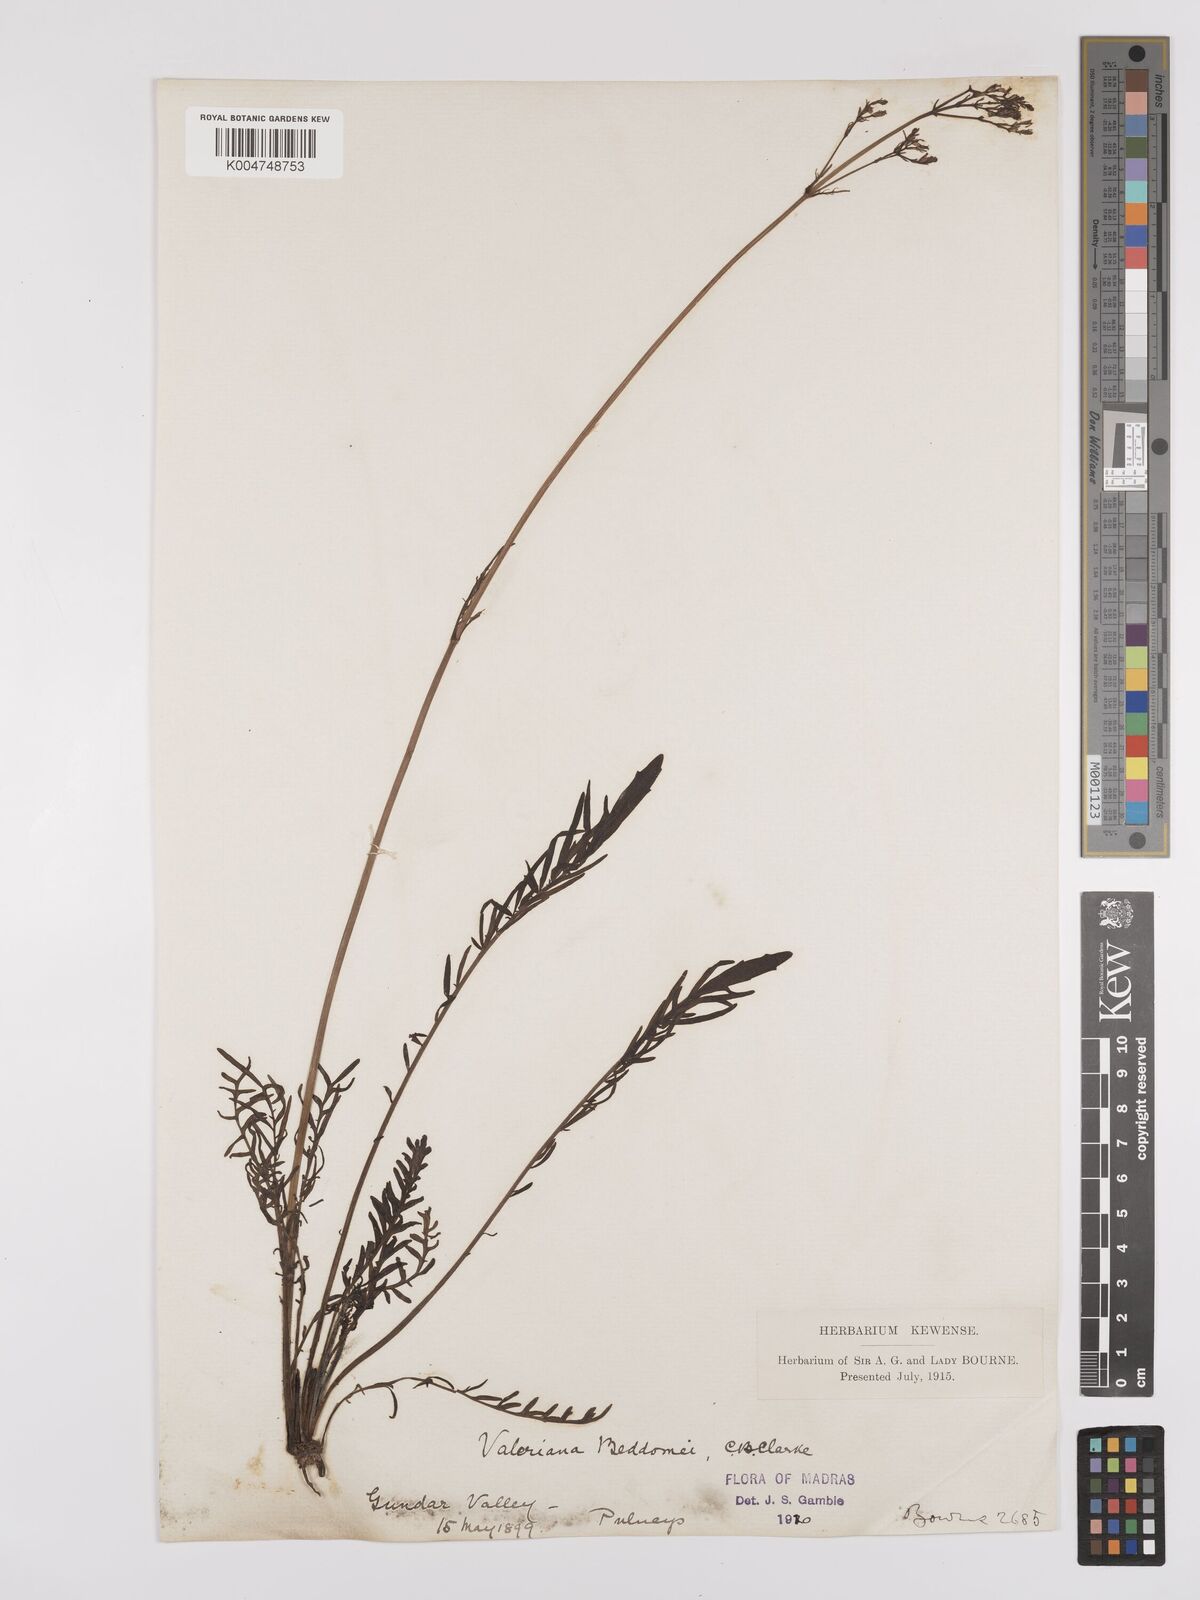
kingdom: Plantae
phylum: Tracheophyta
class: Magnoliopsida
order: Dipsacales
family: Caprifoliaceae
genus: Valeriana
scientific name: Valeriana beddomei
